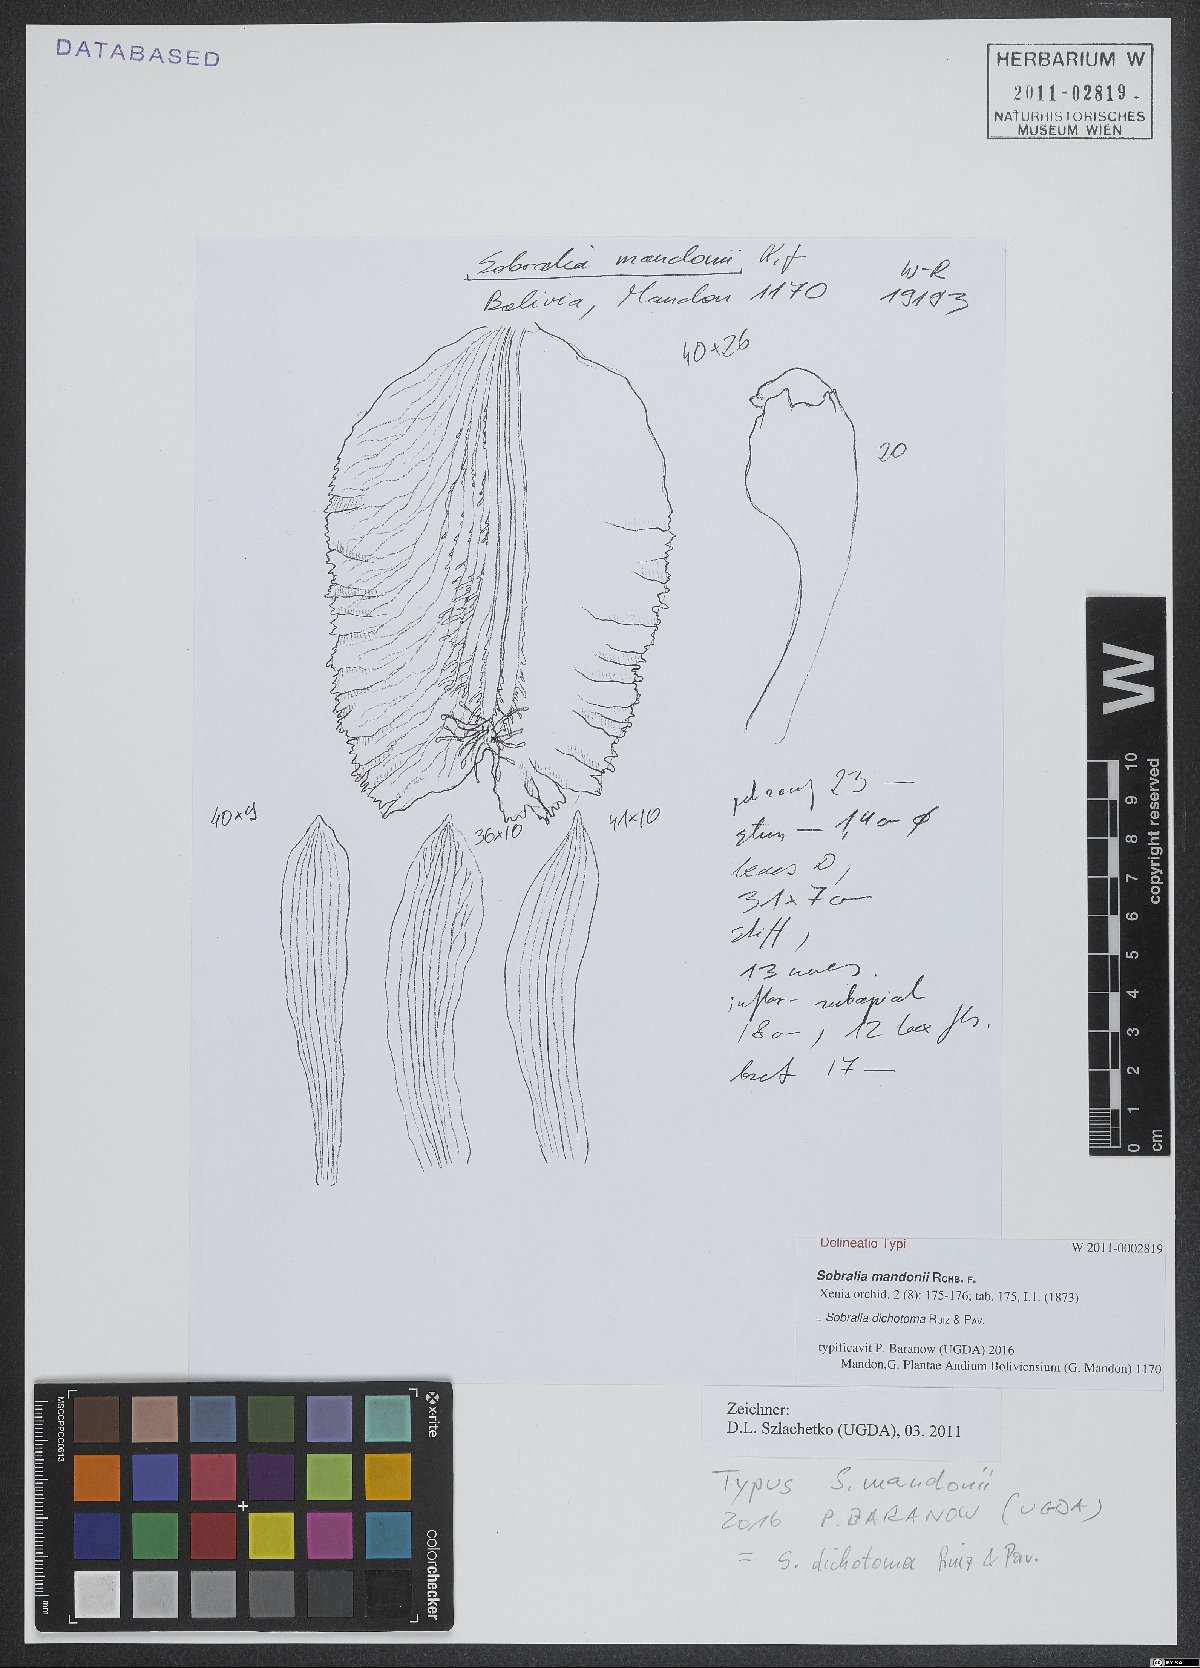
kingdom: Plantae
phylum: Tracheophyta
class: Liliopsida
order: Asparagales
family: Orchidaceae
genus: Sobralia
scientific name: Sobralia dichotoma
